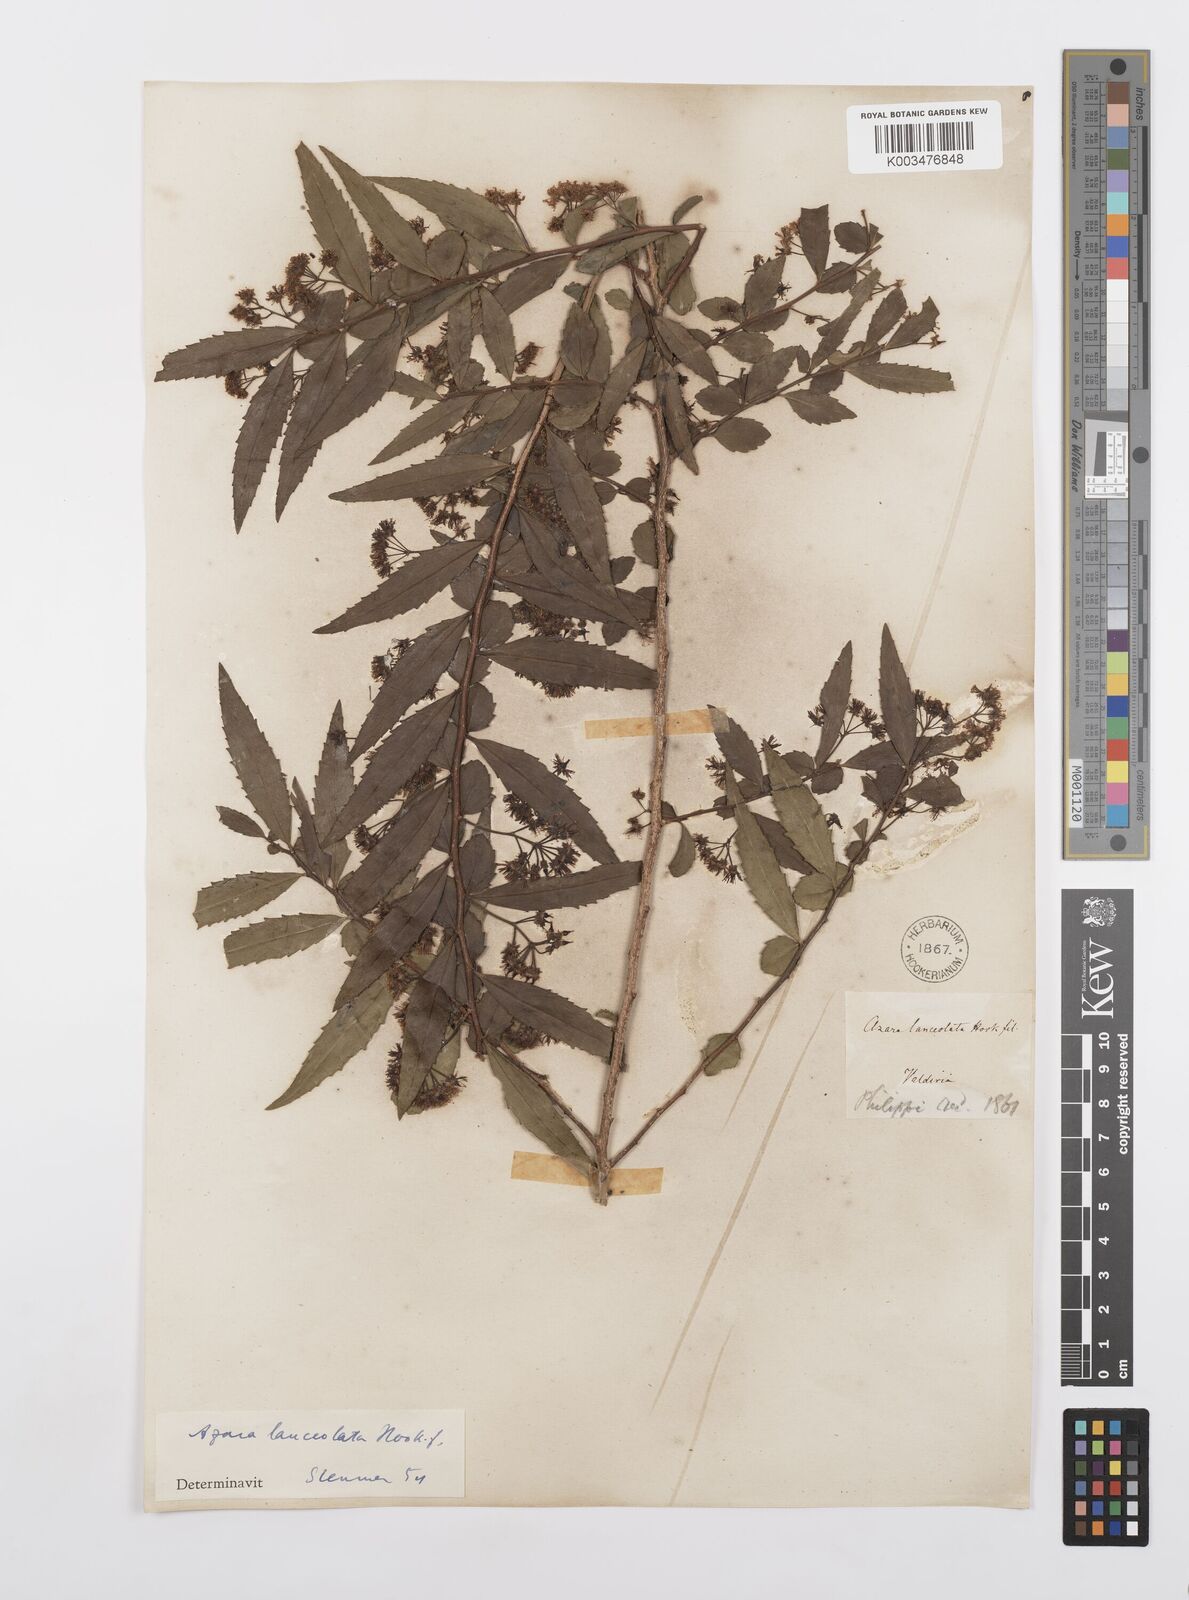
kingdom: Plantae
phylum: Tracheophyta
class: Magnoliopsida
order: Malpighiales
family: Salicaceae
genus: Azara
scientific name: Azara lanceolata
